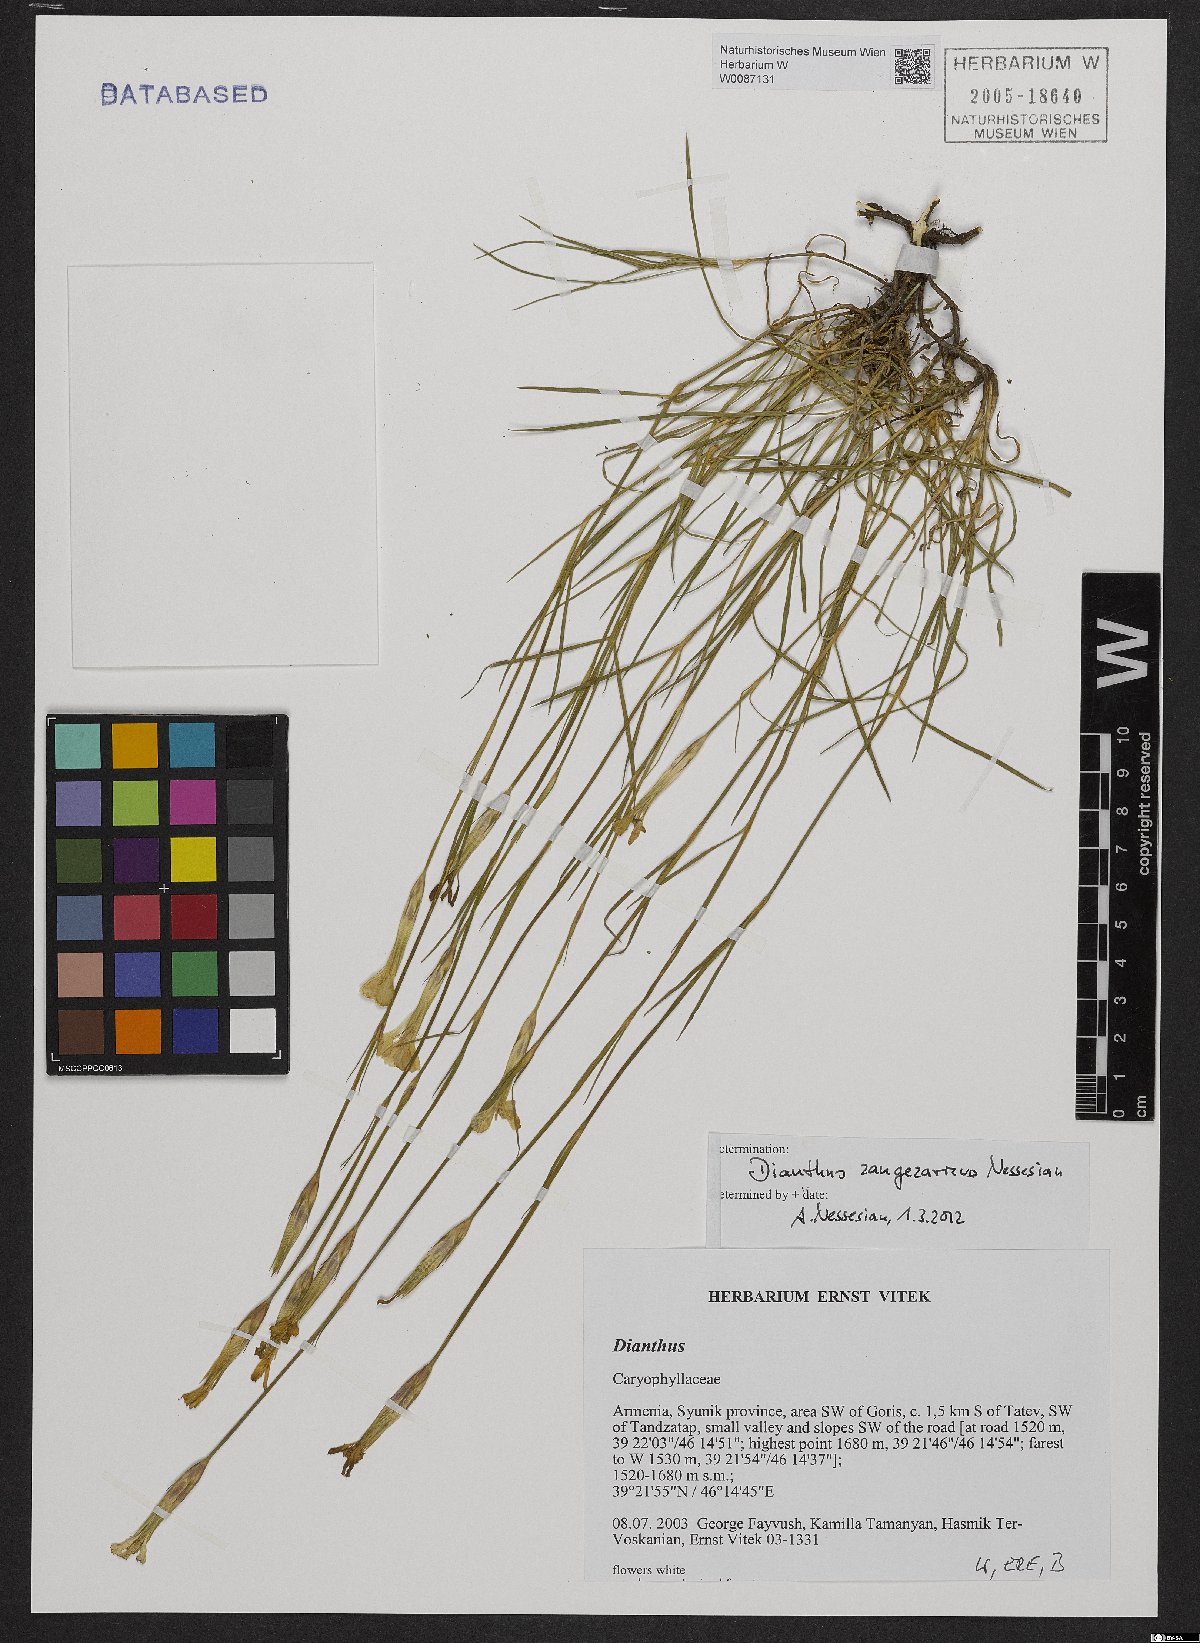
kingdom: Plantae
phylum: Tracheophyta
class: Magnoliopsida
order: Caryophyllales
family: Caryophyllaceae
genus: Dianthus
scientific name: Dianthus zangezuricus
